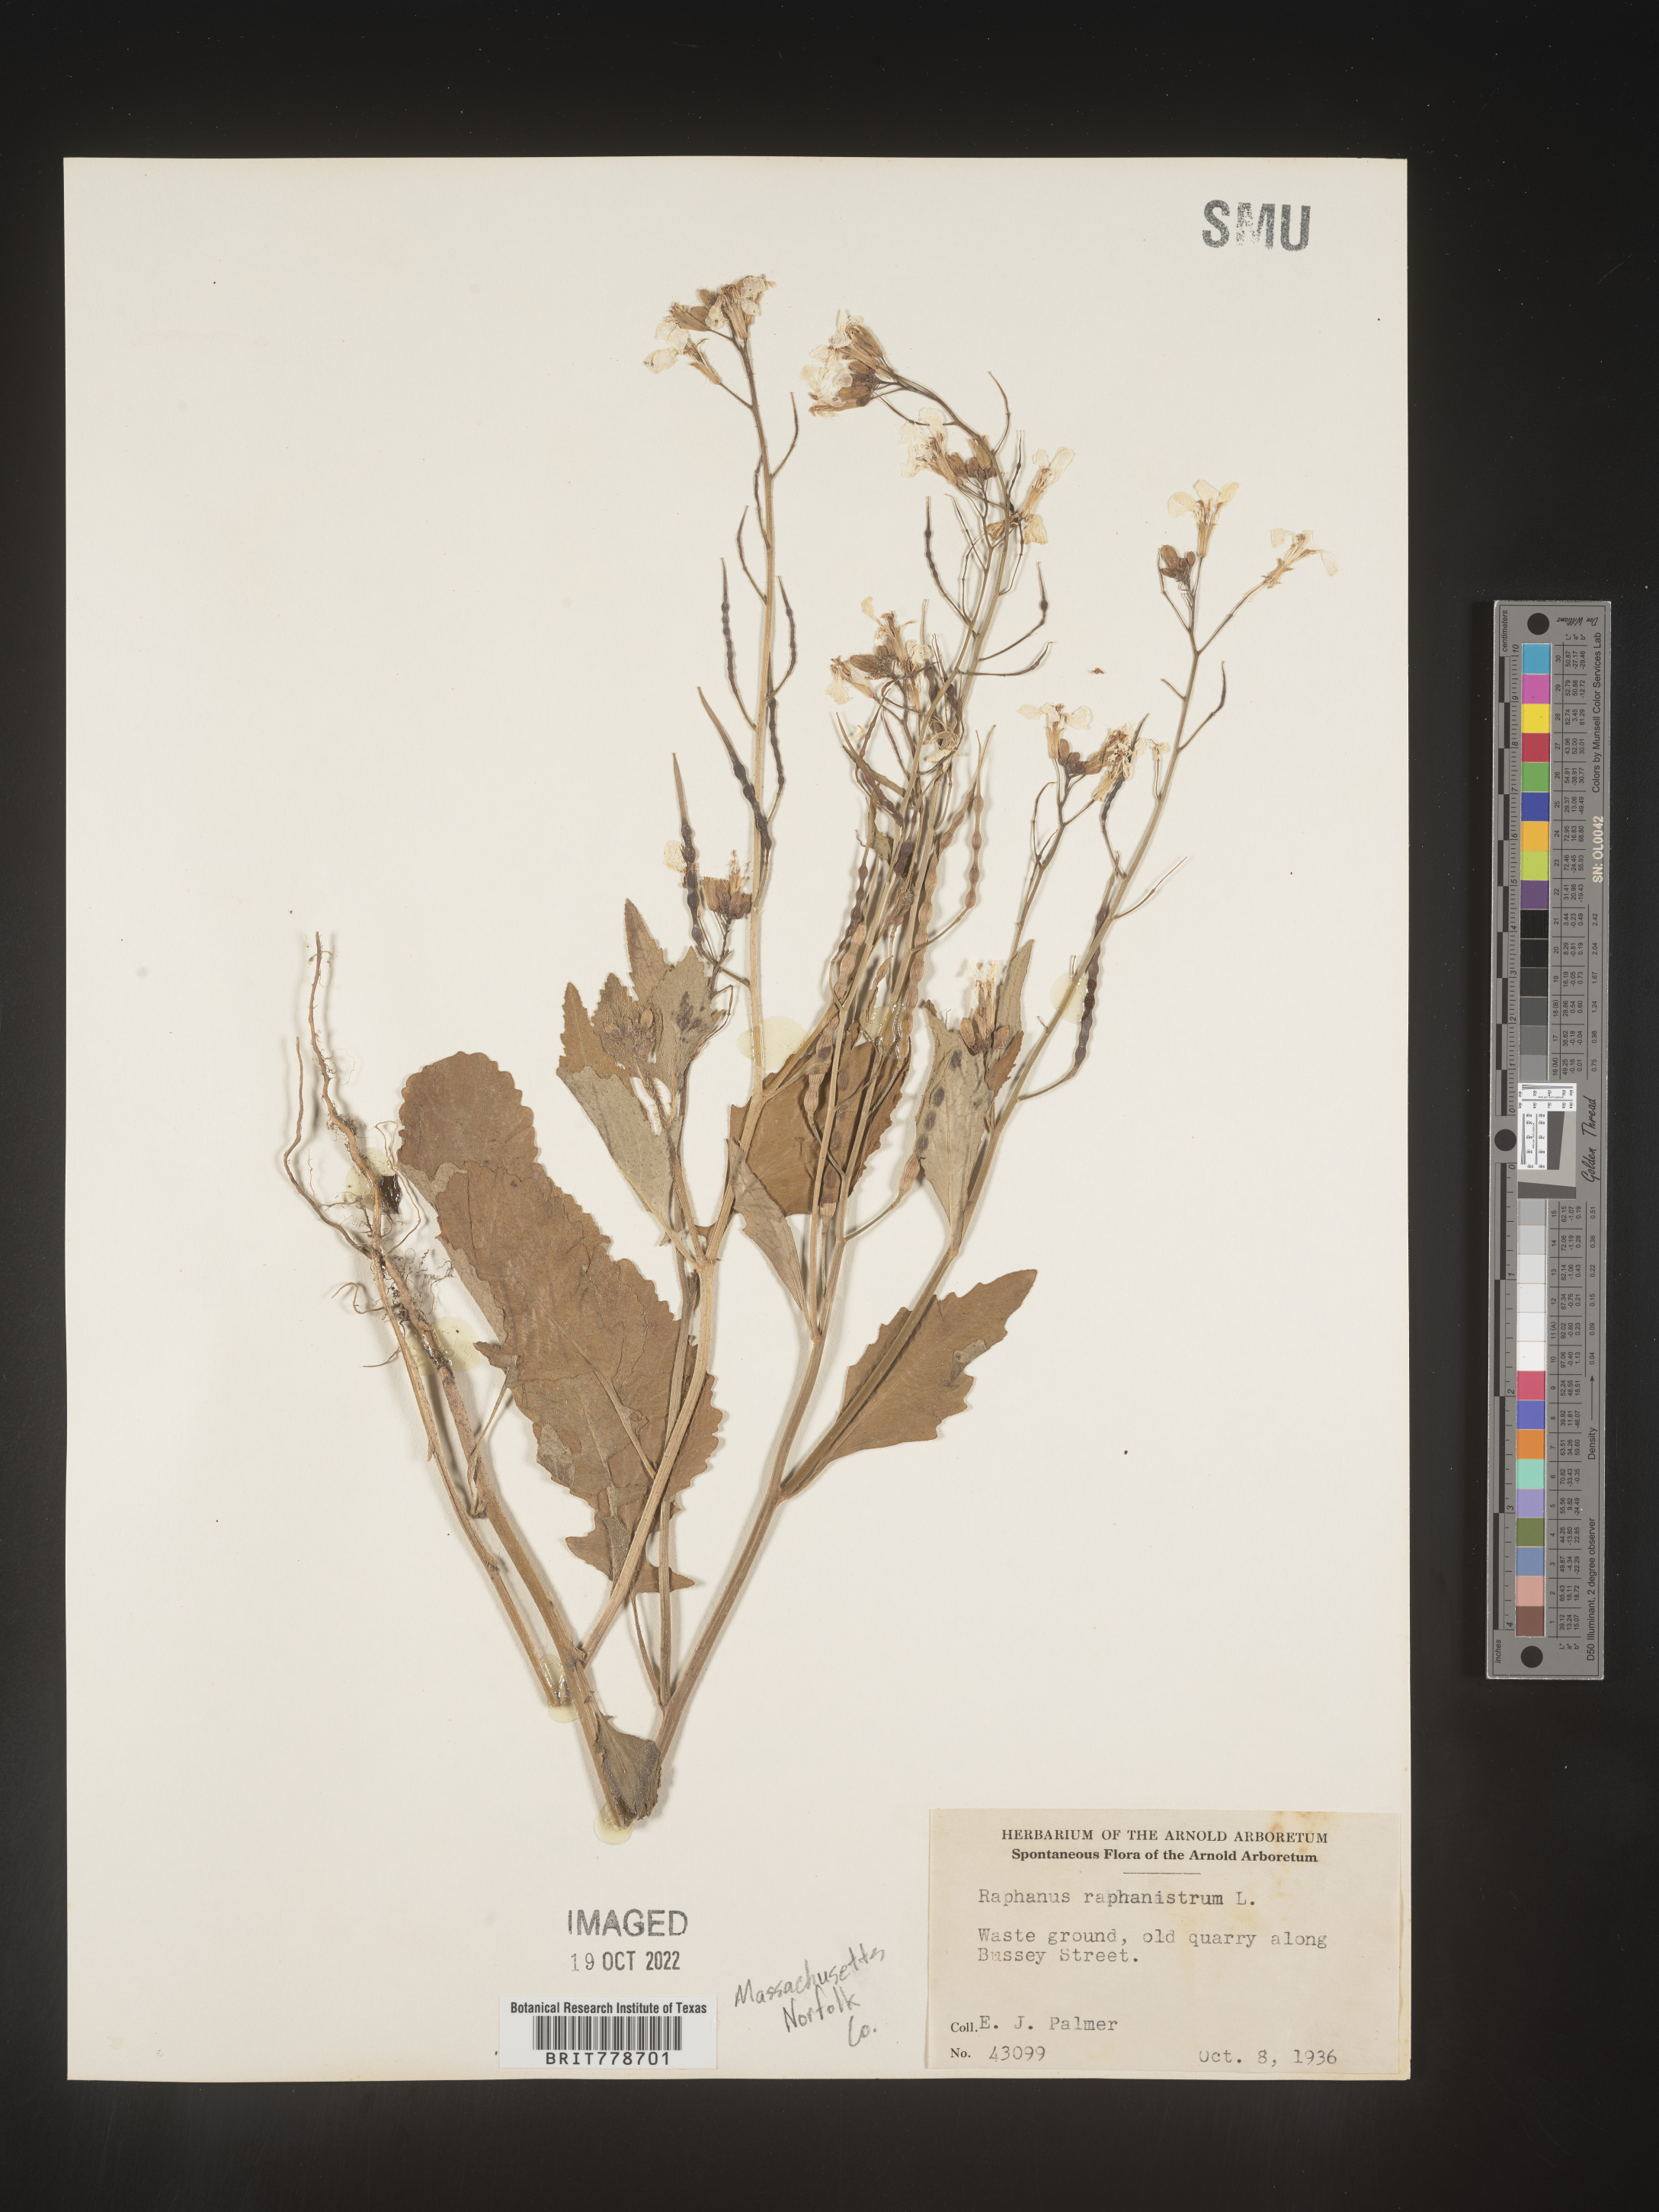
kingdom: Plantae
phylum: Tracheophyta
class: Magnoliopsida
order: Brassicales
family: Brassicaceae
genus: Raphanus
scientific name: Raphanus raphanistrum
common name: Wild radish
